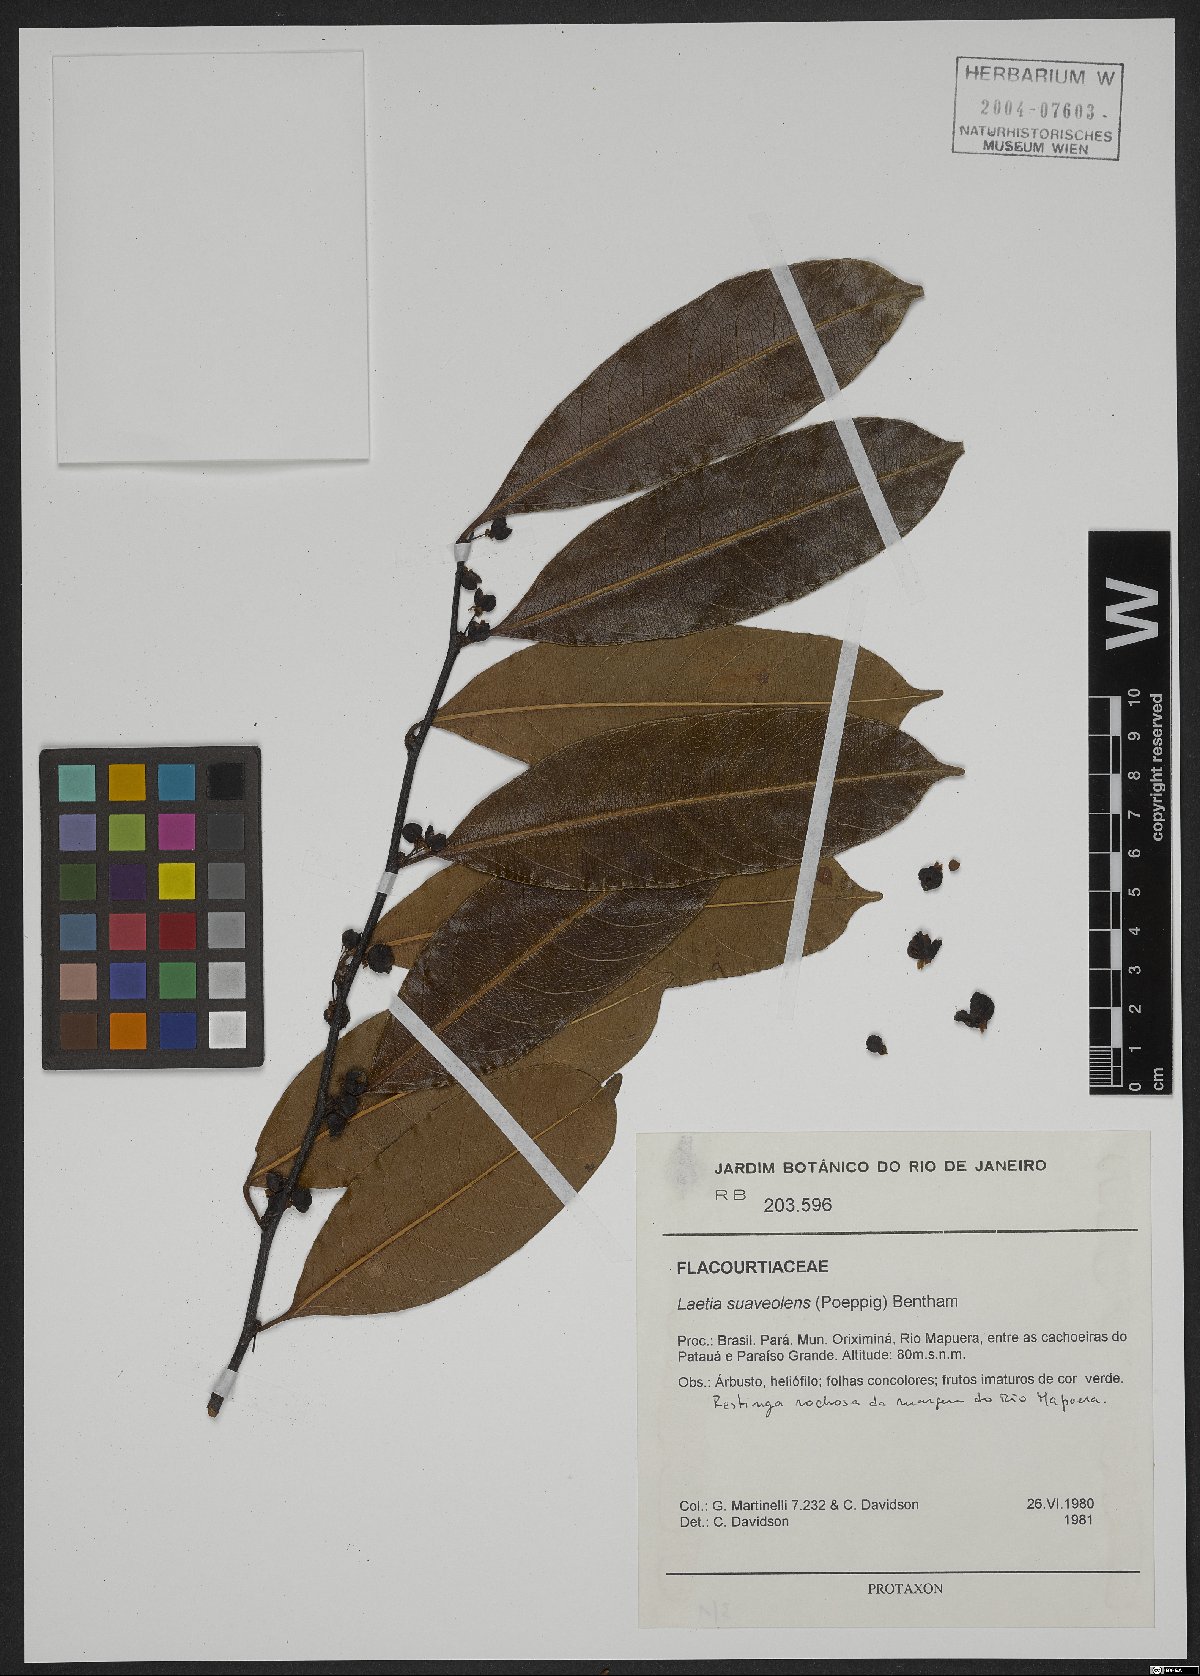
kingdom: Plantae
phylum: Tracheophyta
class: Magnoliopsida
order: Malpighiales
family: Salicaceae
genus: Casearia
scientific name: Casearia suaveolens
